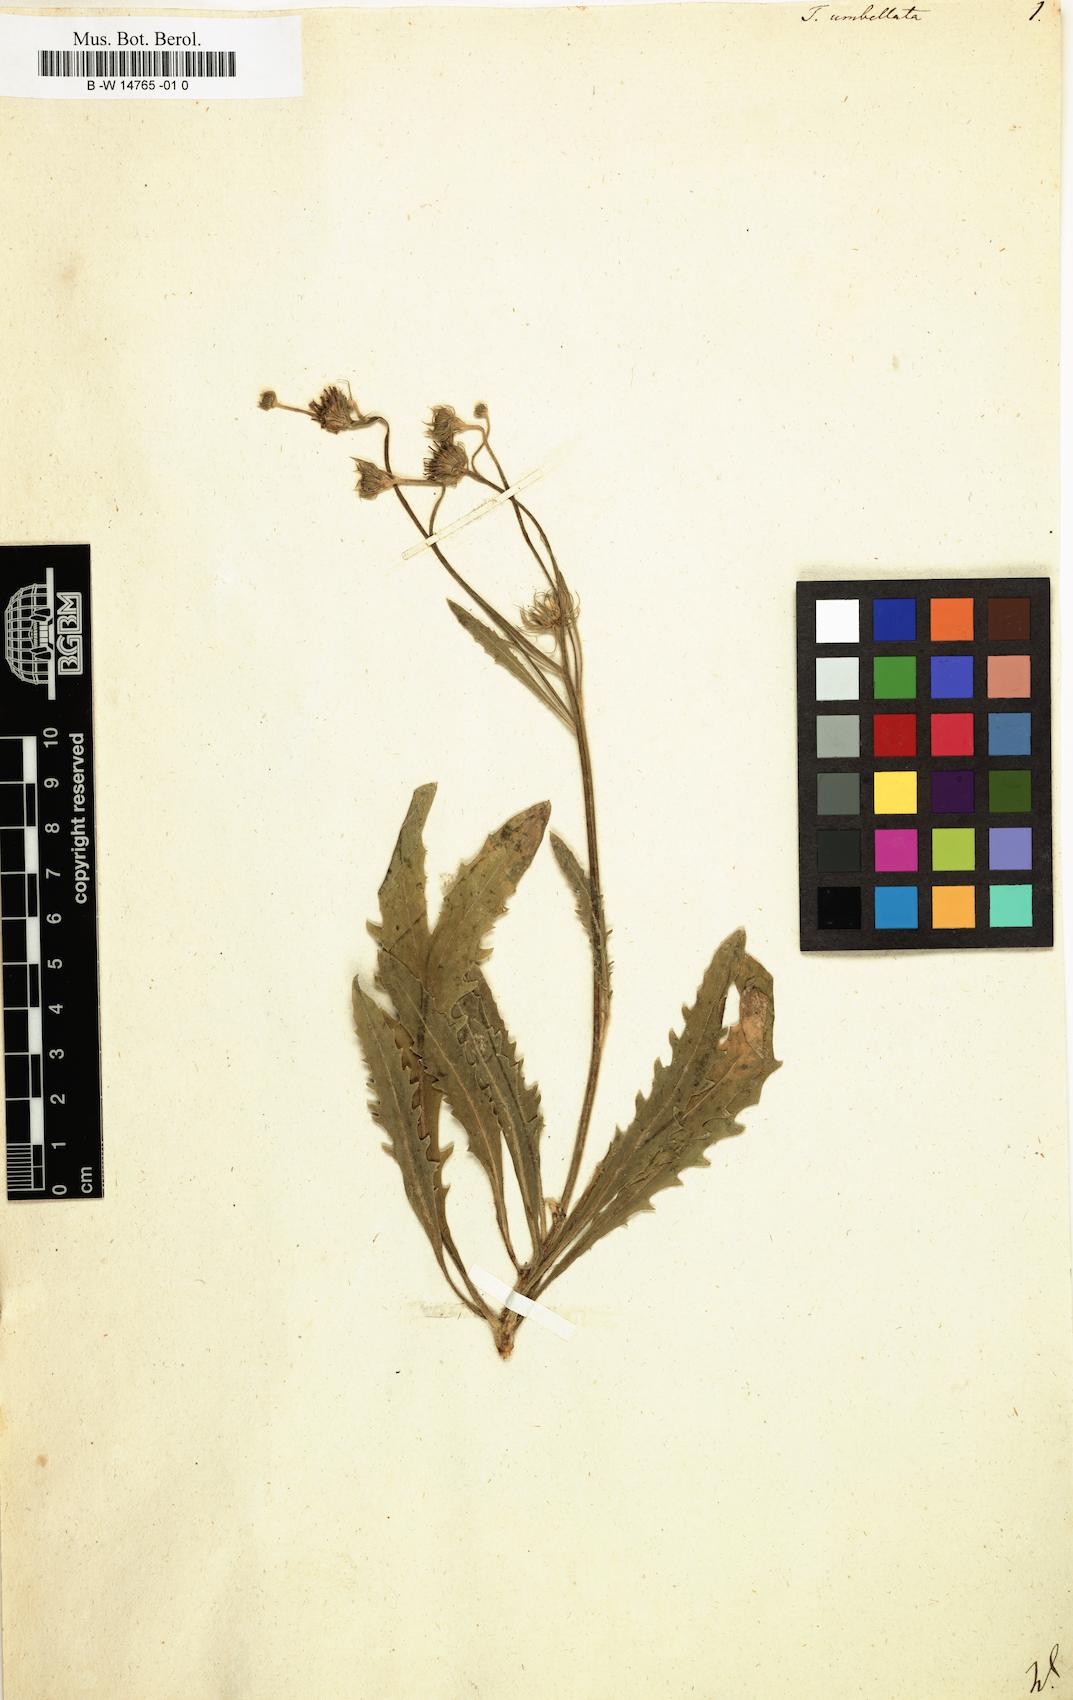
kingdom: Plantae
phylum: Tracheophyta
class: Magnoliopsida
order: Asterales
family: Asteraceae
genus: Tolpis
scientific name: Tolpis umbellata
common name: Yellow hawkweed
